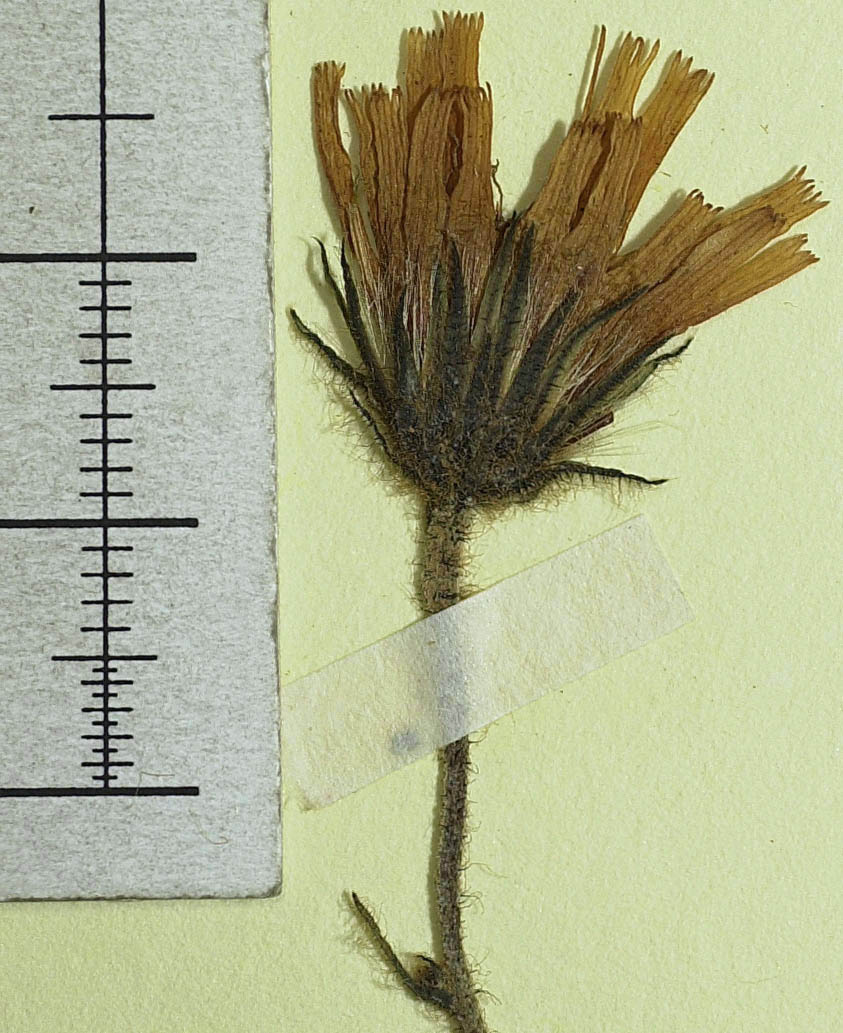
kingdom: Plantae
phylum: Tracheophyta
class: Magnoliopsida
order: Asterales
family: Asteraceae
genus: Hieracium
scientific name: Hieracium subspeciosum
